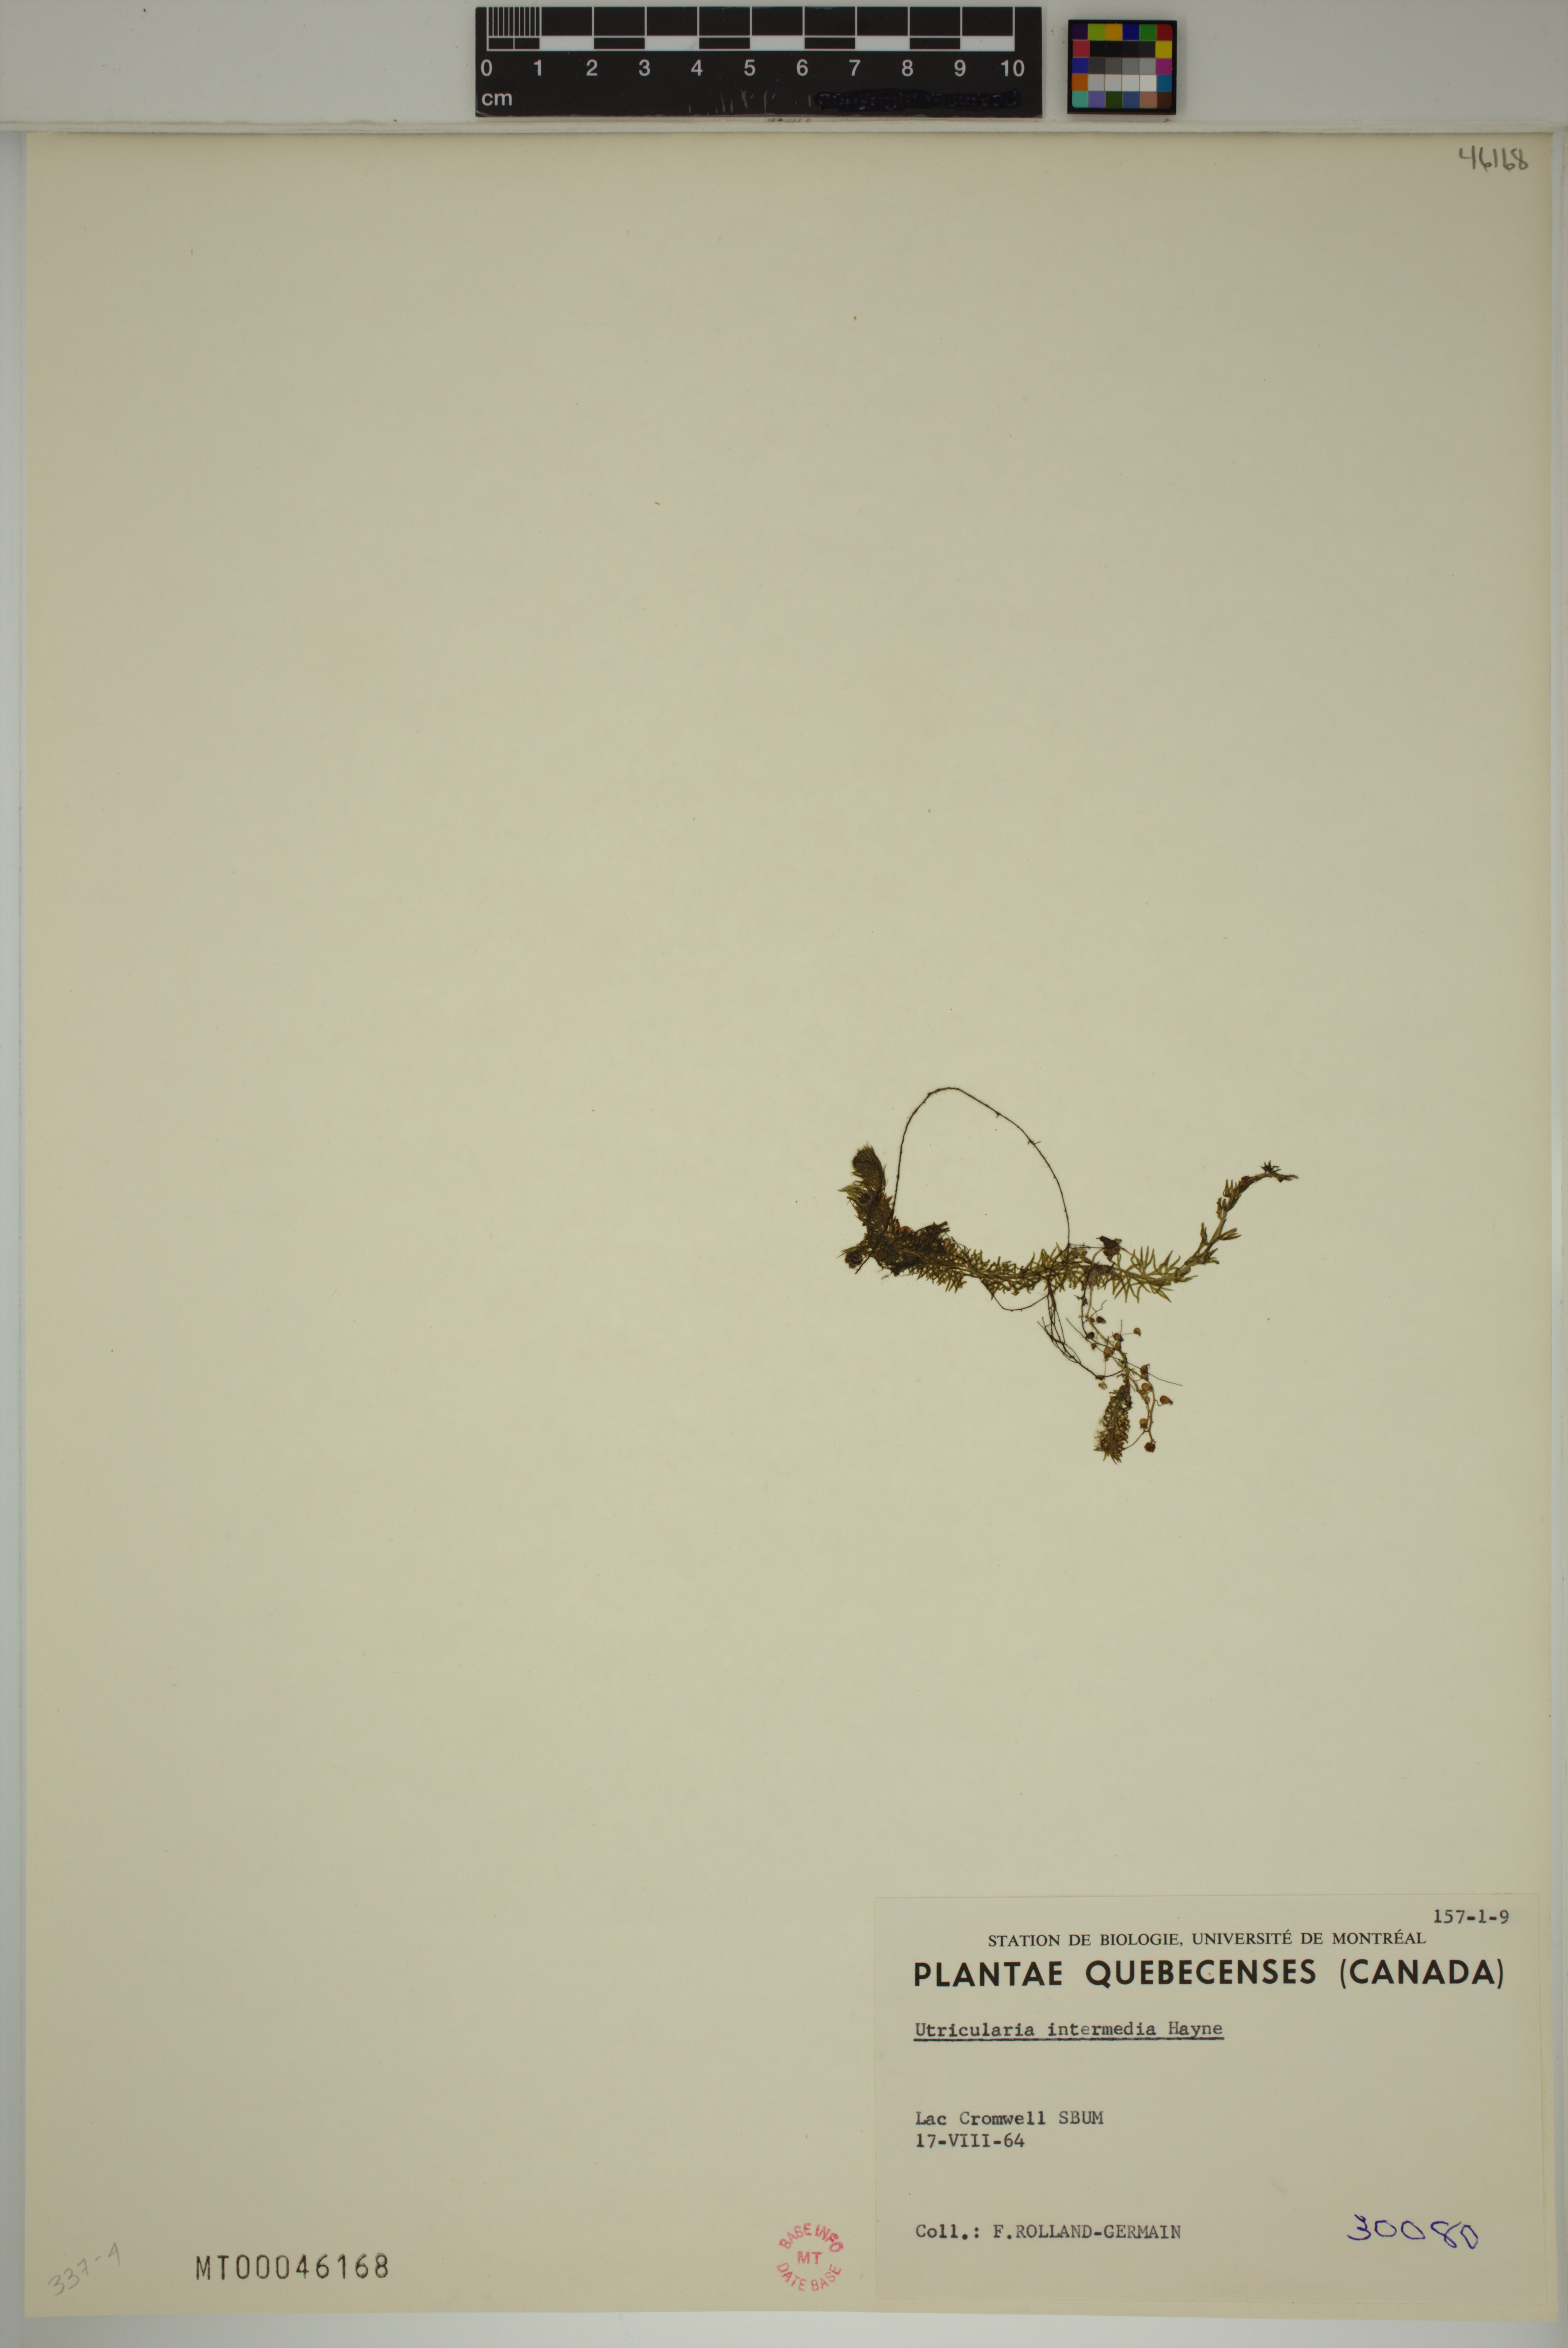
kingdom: Plantae
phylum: Tracheophyta
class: Magnoliopsida
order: Lamiales
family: Lentibulariaceae
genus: Utricularia
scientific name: Utricularia intermedia
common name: Intermediate bladderwort
